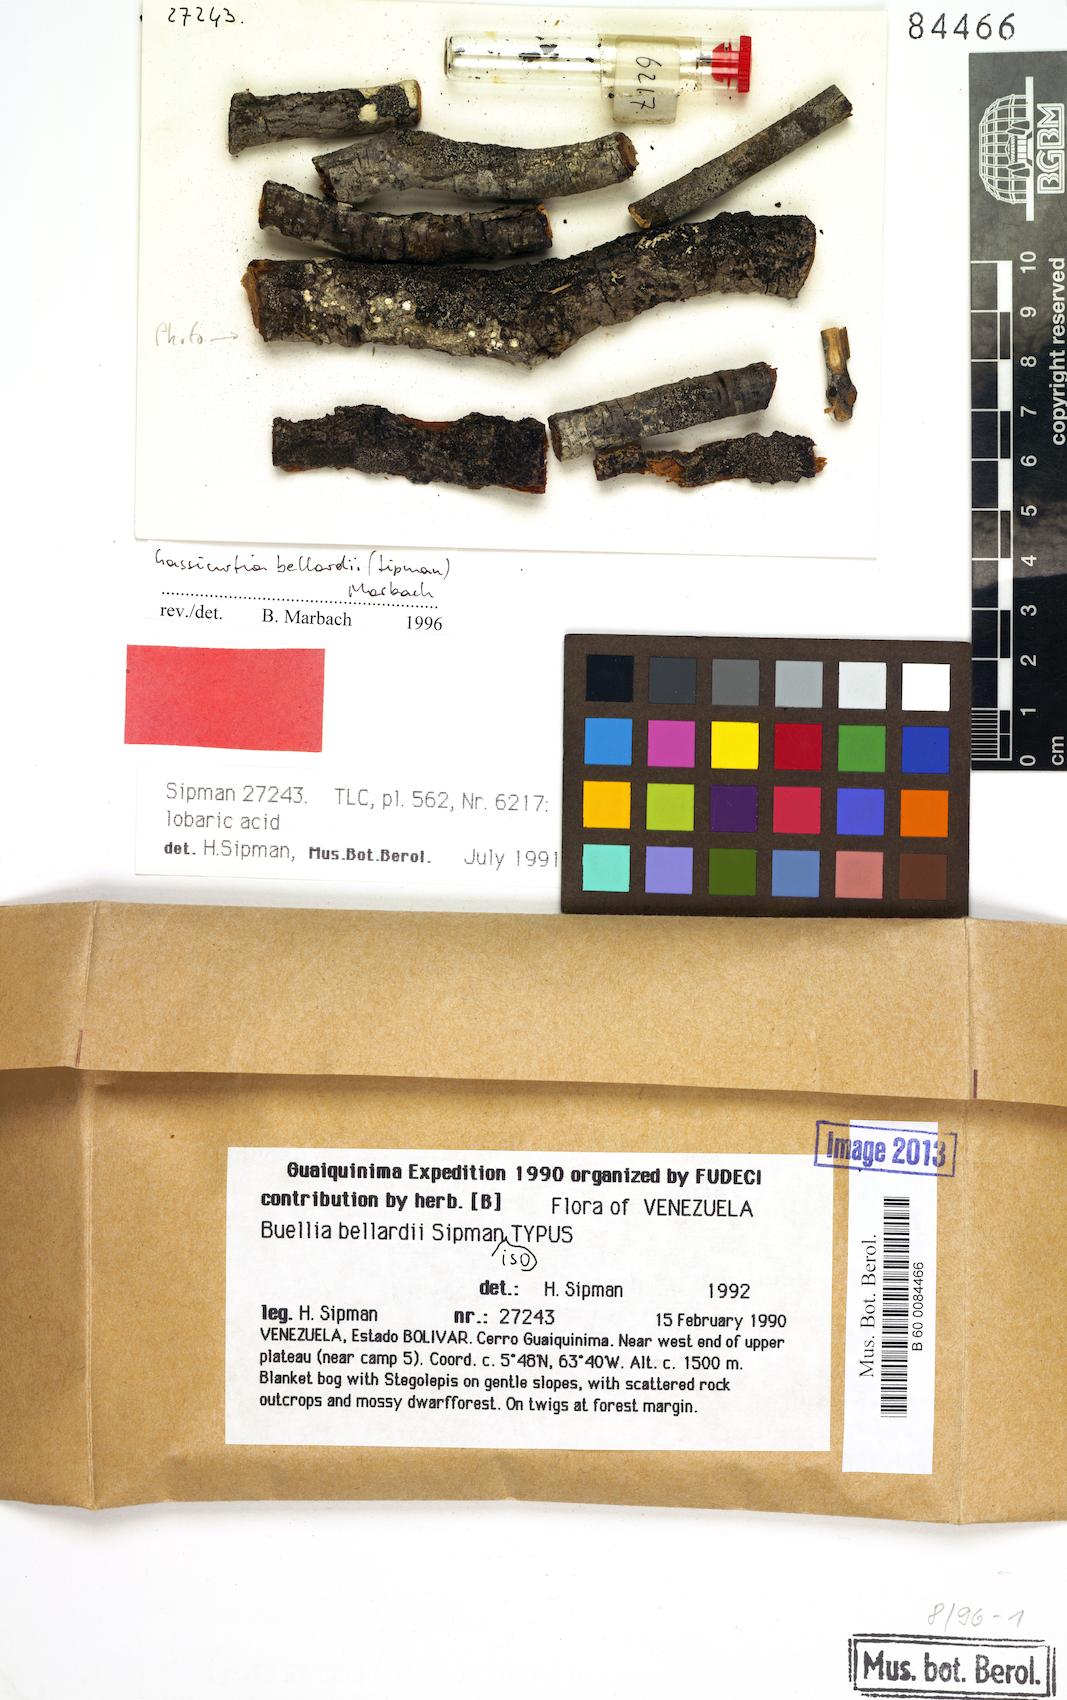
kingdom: Fungi
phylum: Ascomycota
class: Lecanoromycetes
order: Caliciales
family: Caliciaceae
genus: Gassicurtia
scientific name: Gassicurtia bellardii
